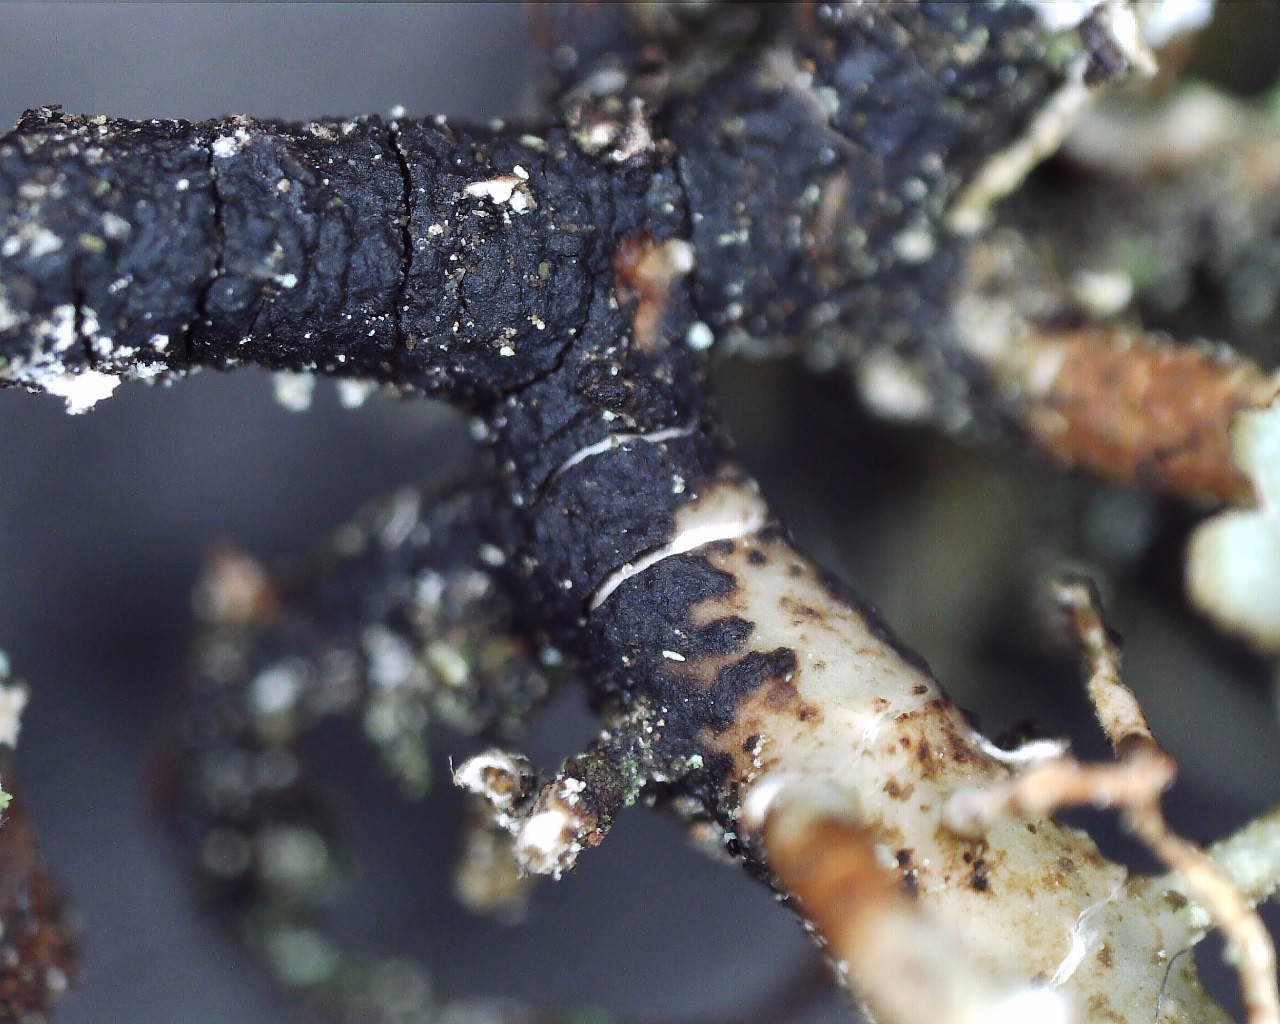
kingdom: Fungi
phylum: Ascomycota
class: Lecanoromycetes
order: Lecanorales
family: Parmeliaceae
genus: Usnea
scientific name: Usnea subfloridana
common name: busket skæglav
